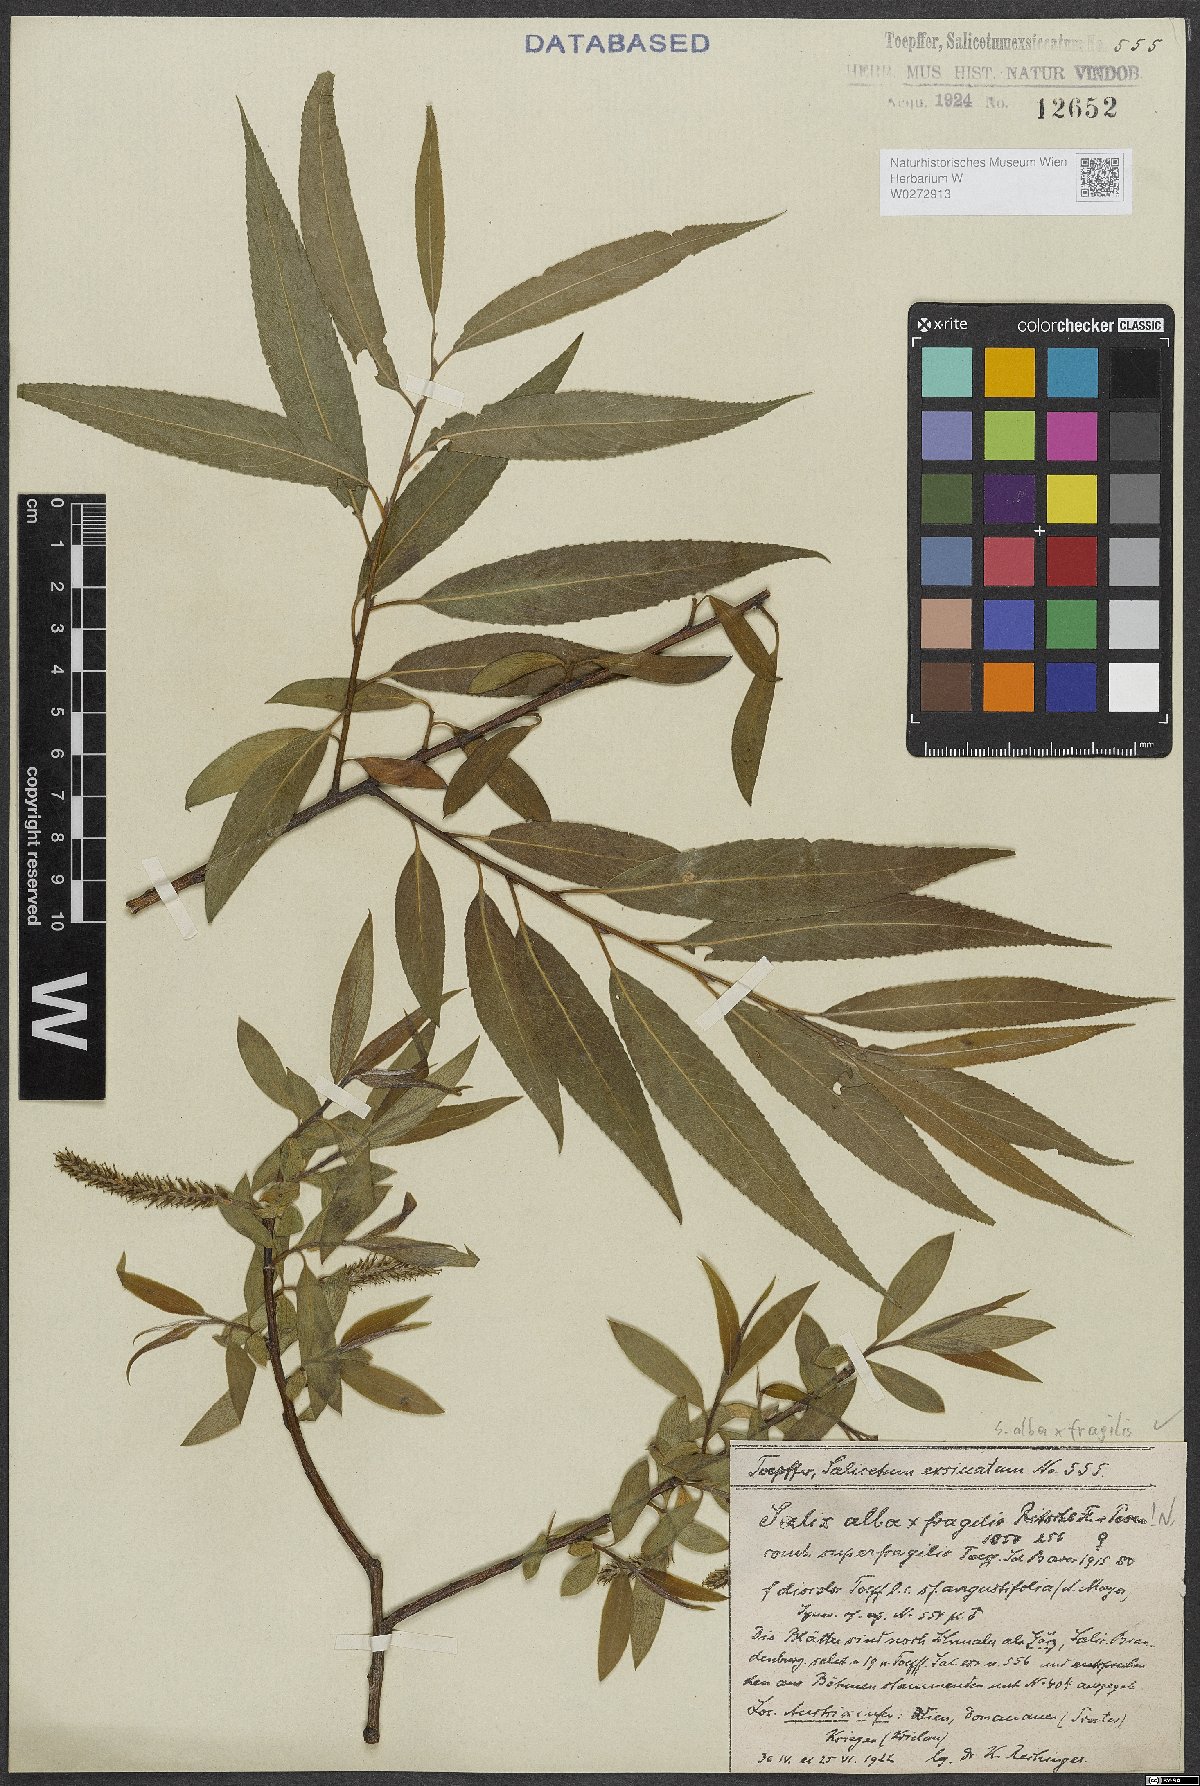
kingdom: Plantae
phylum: Tracheophyta
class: Magnoliopsida
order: Malpighiales
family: Salicaceae
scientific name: Salicaceae
